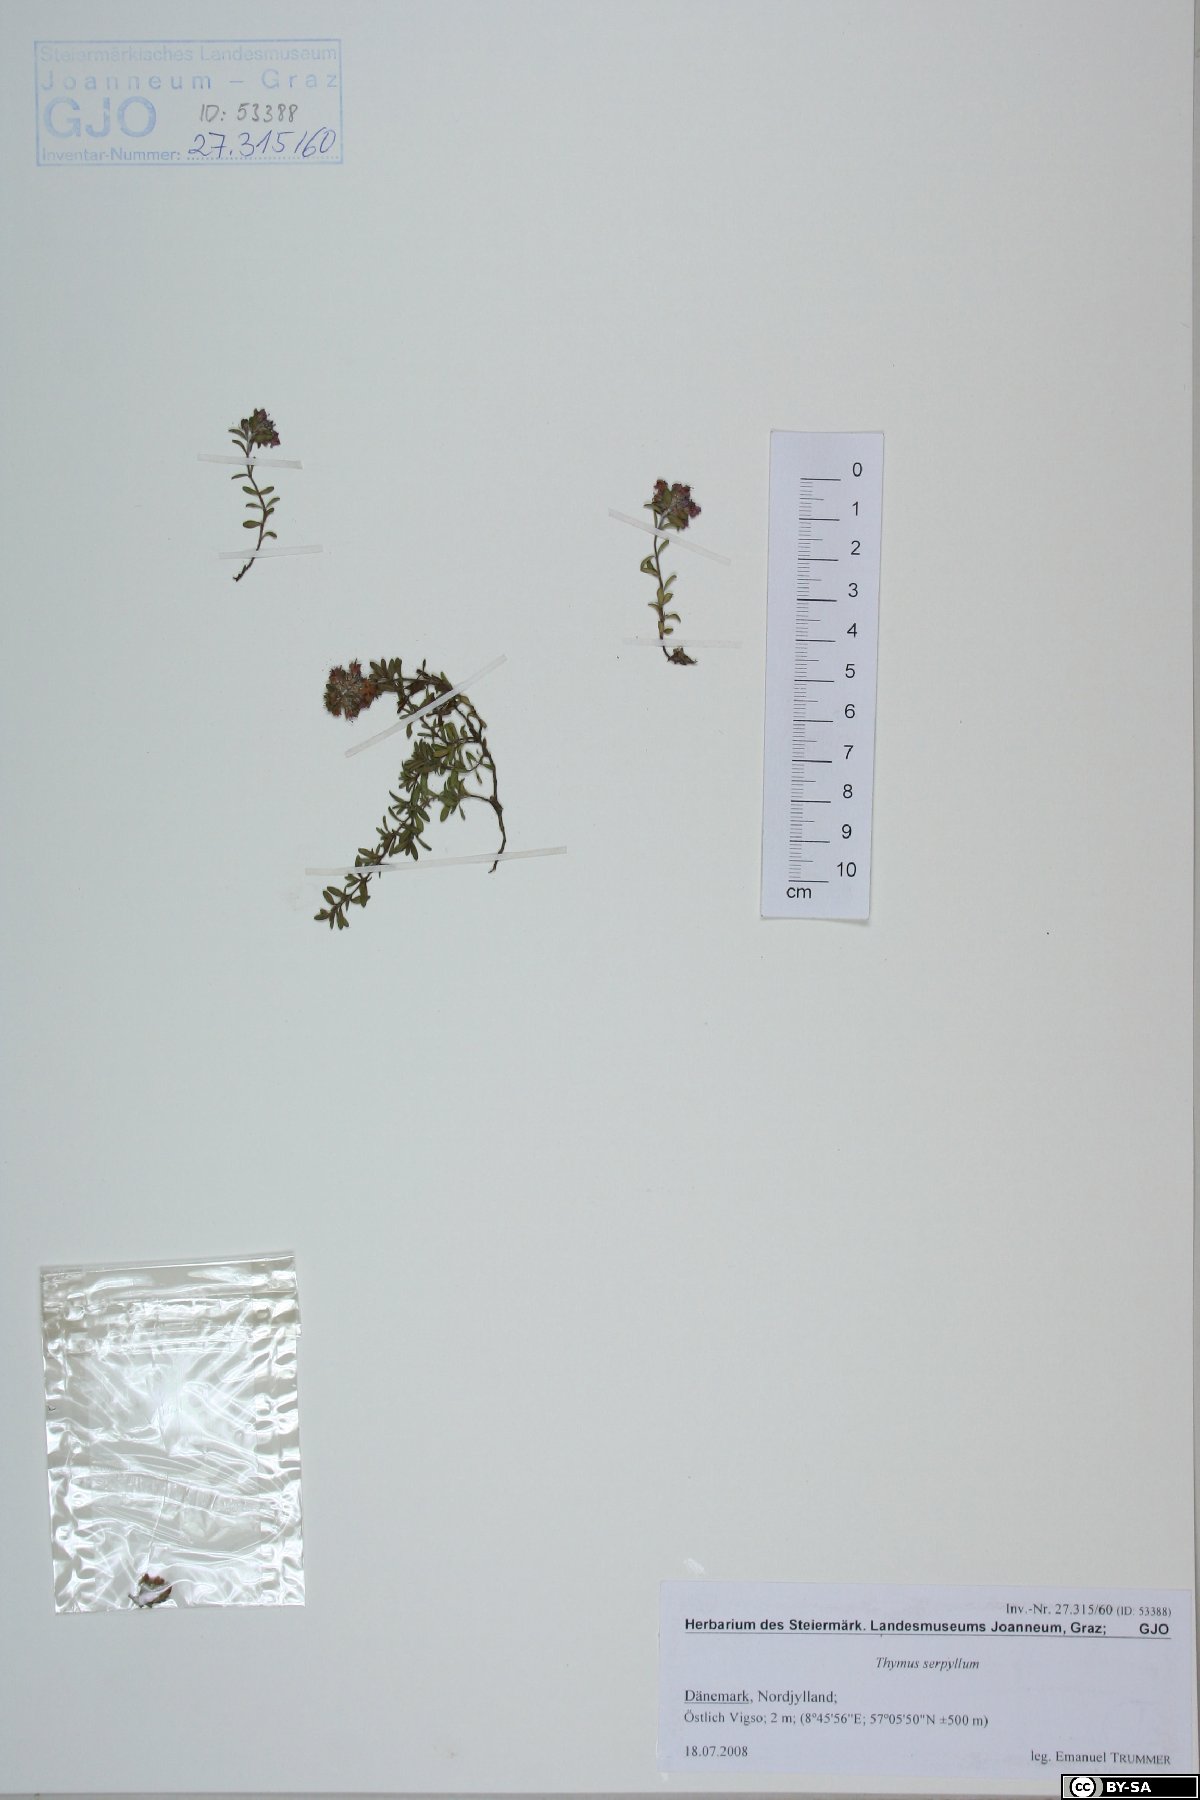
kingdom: Plantae
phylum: Tracheophyta
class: Magnoliopsida
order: Lamiales
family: Lamiaceae
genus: Thymus
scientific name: Thymus serpyllum
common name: Breckland thyme
